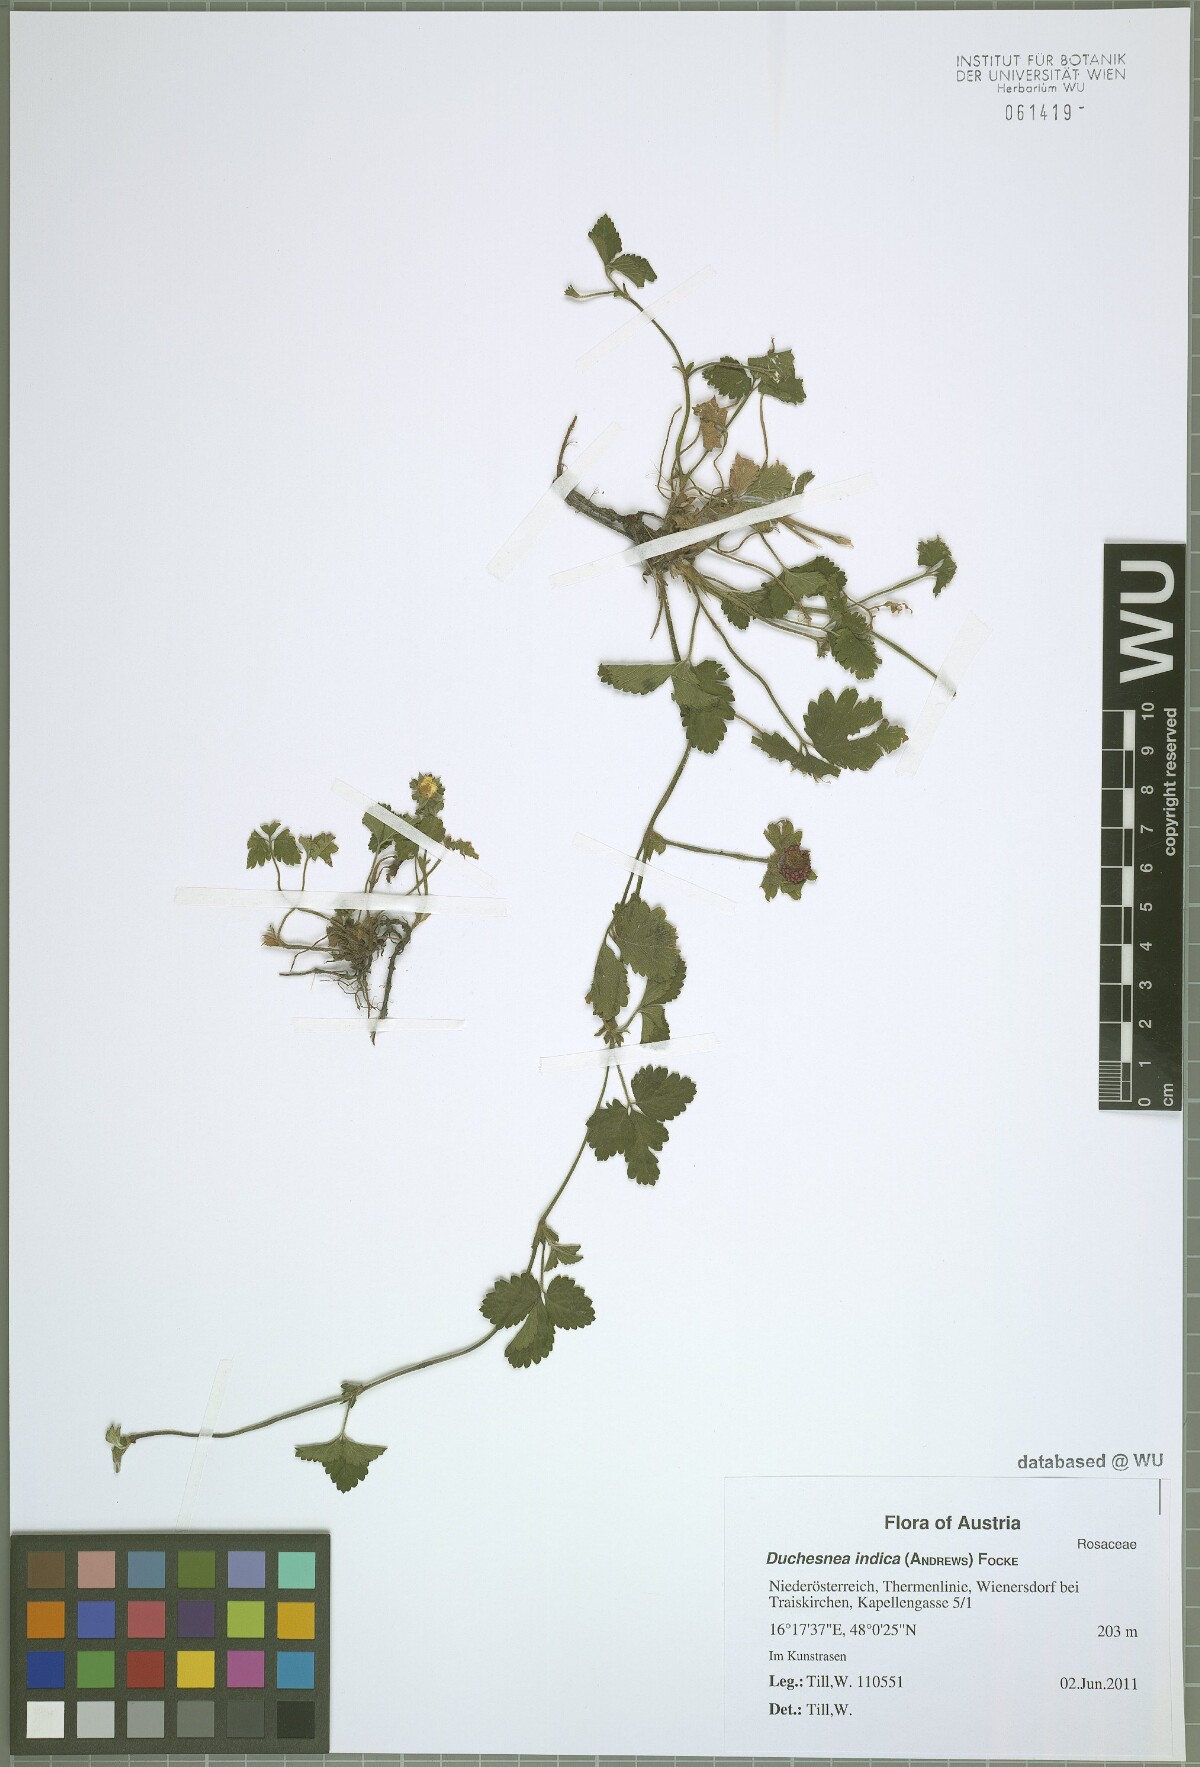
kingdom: Plantae
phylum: Tracheophyta
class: Magnoliopsida
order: Rosales
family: Rosaceae
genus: Potentilla
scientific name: Potentilla indica
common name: Yellow-flowered strawberry
